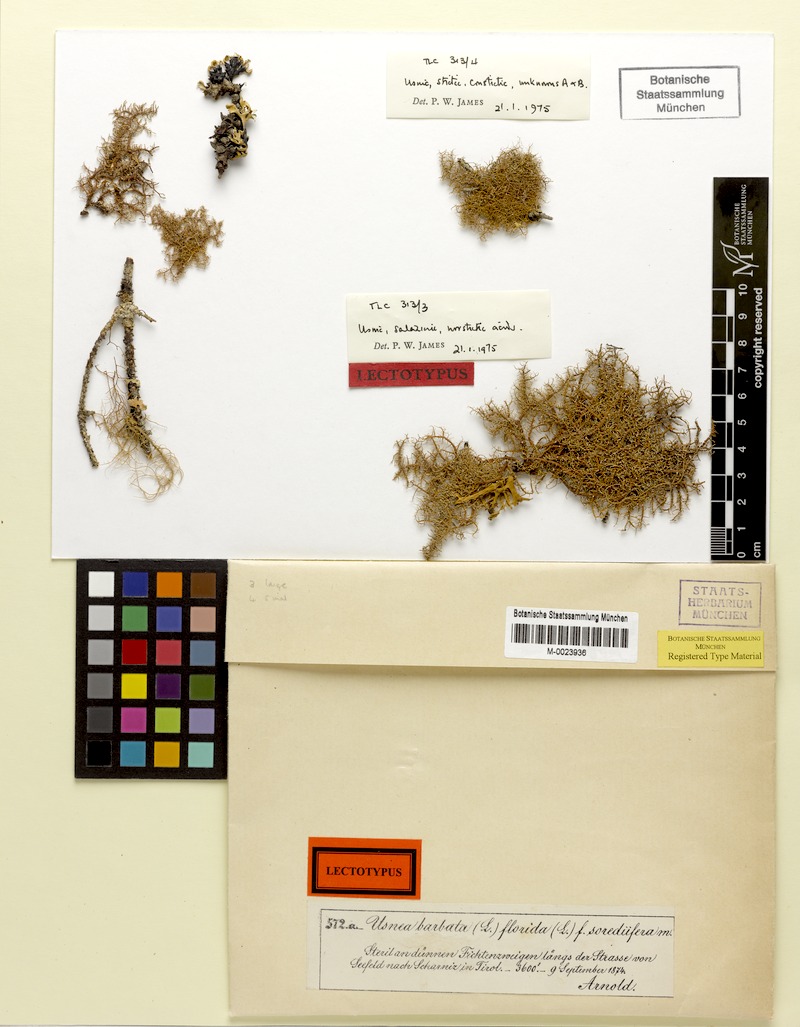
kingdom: Fungi
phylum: Ascomycota
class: Lecanoromycetes
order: Lecanorales
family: Parmeliaceae
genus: Usnea
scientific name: Usnea glabrata
